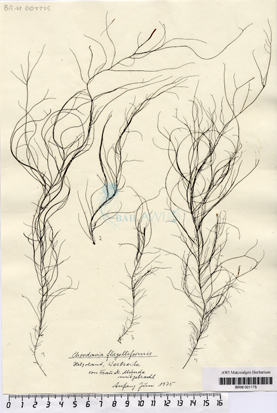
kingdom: Chromista
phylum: Ochrophyta
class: Phaeophyceae
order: Ectocarpales
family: Chordariaceae
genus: Chordaria
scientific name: Chordaria flagelliformis
